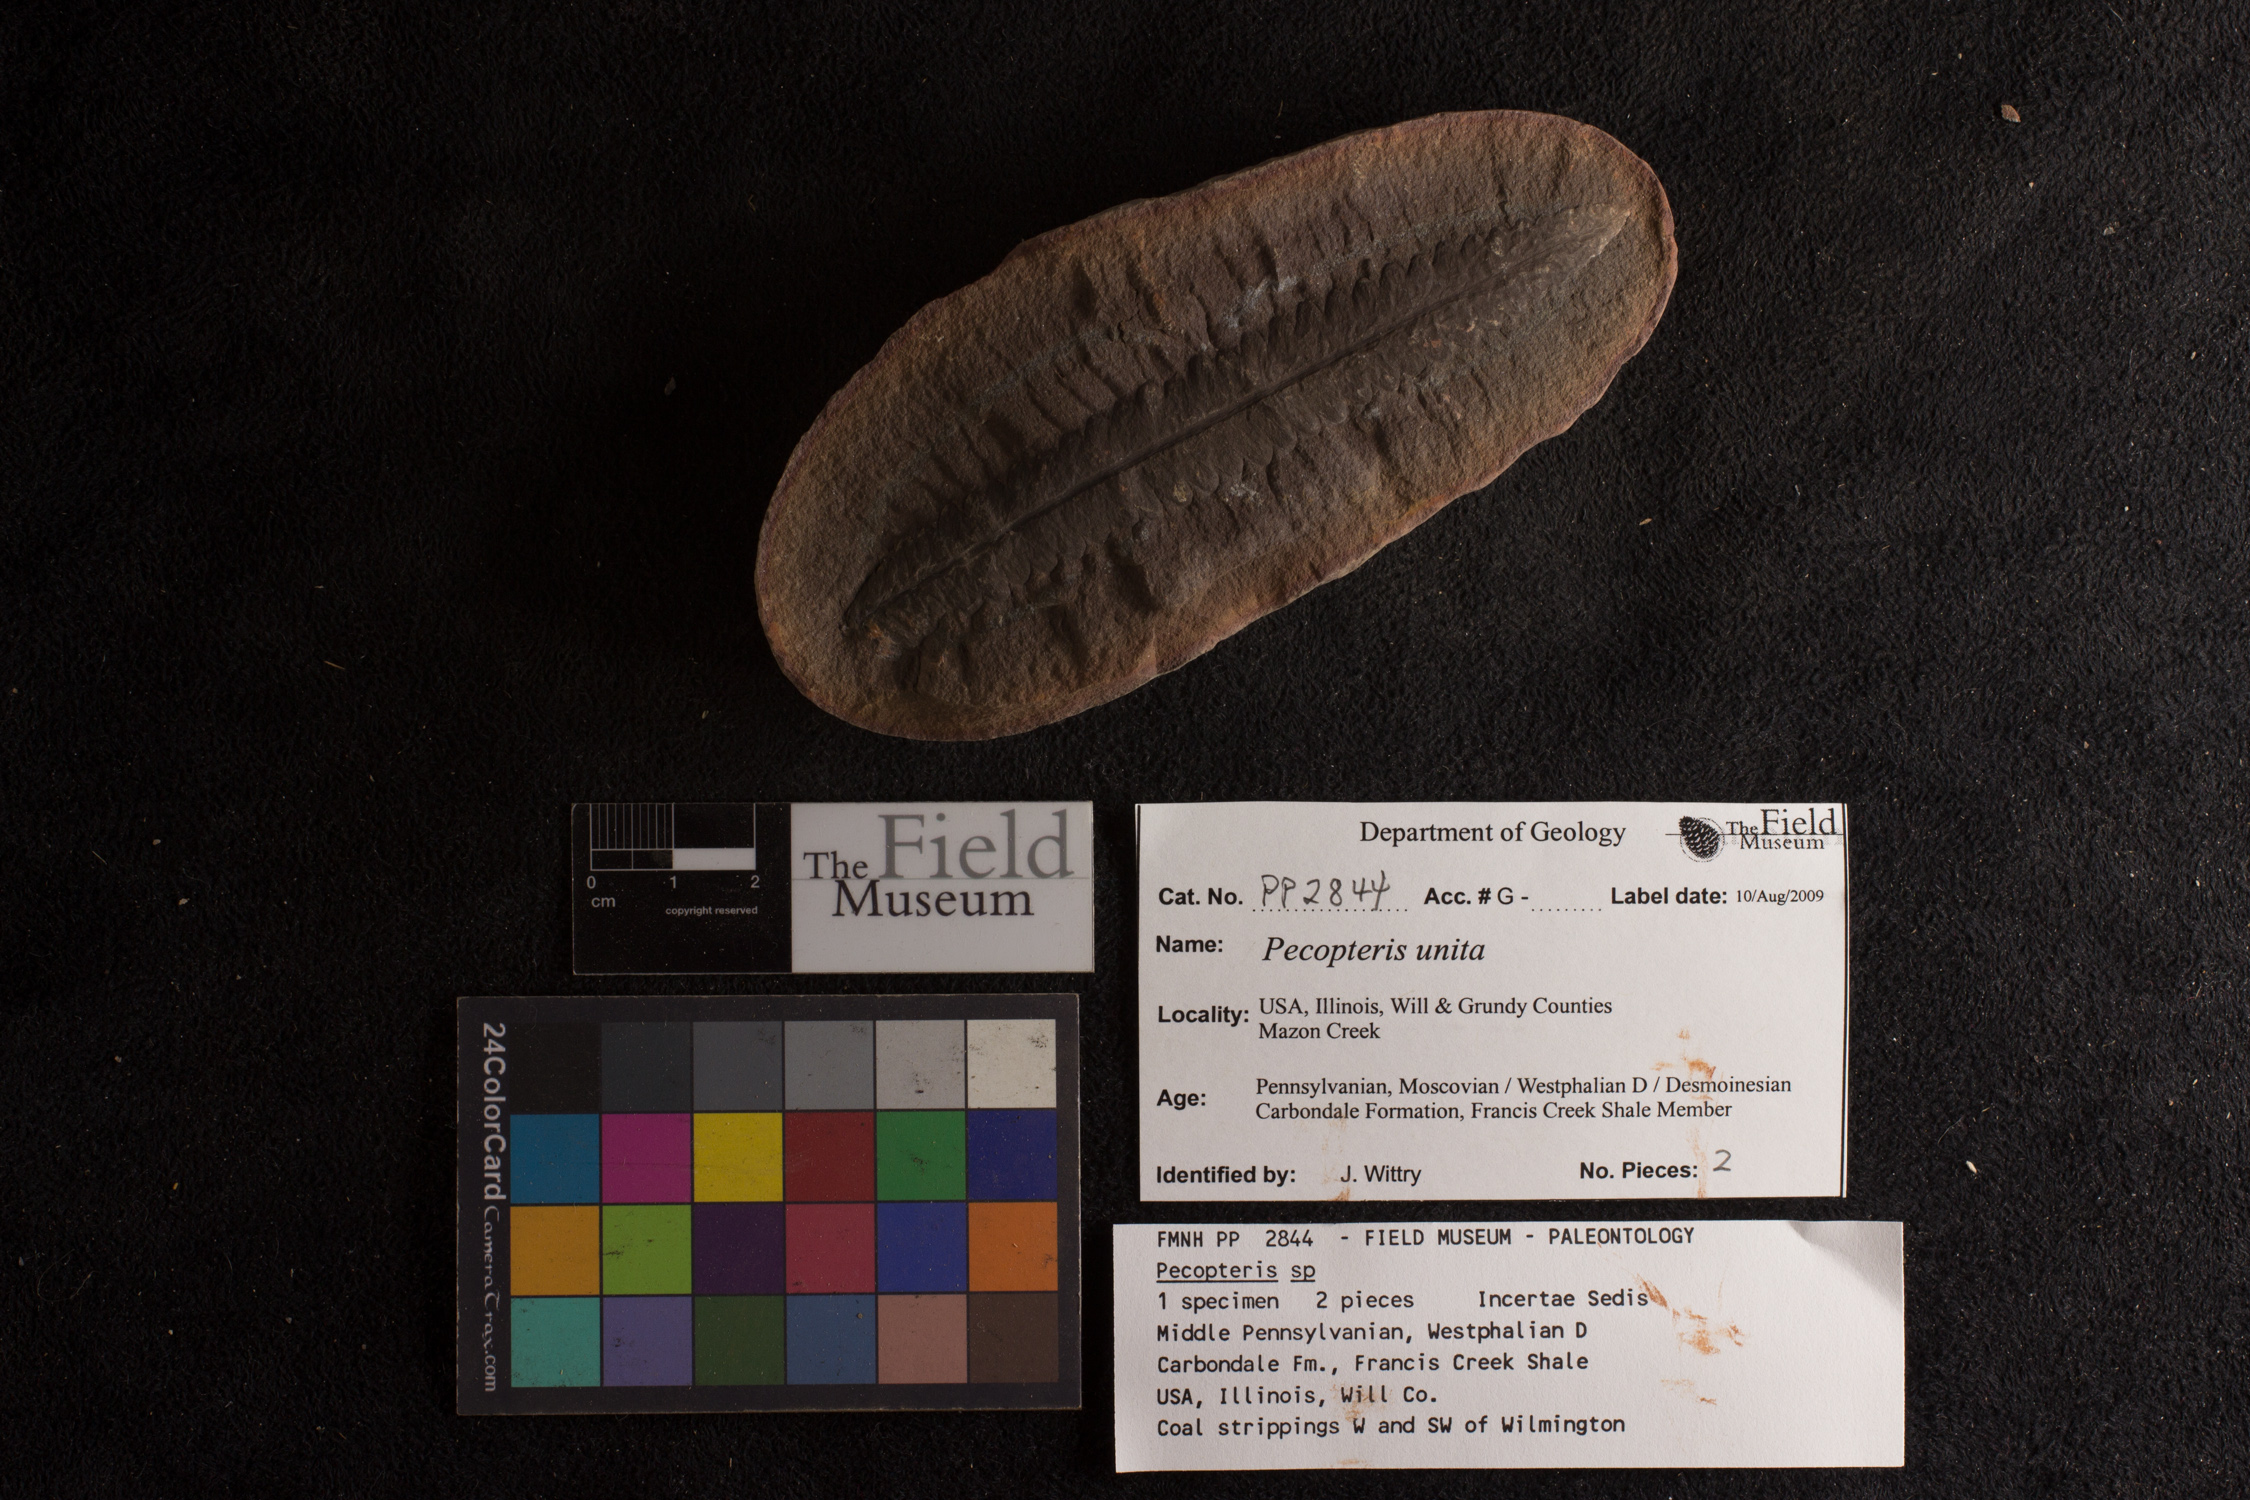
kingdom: Plantae
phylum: Tracheophyta
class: Polypodiopsida
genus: Diplazites
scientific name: Diplazites
